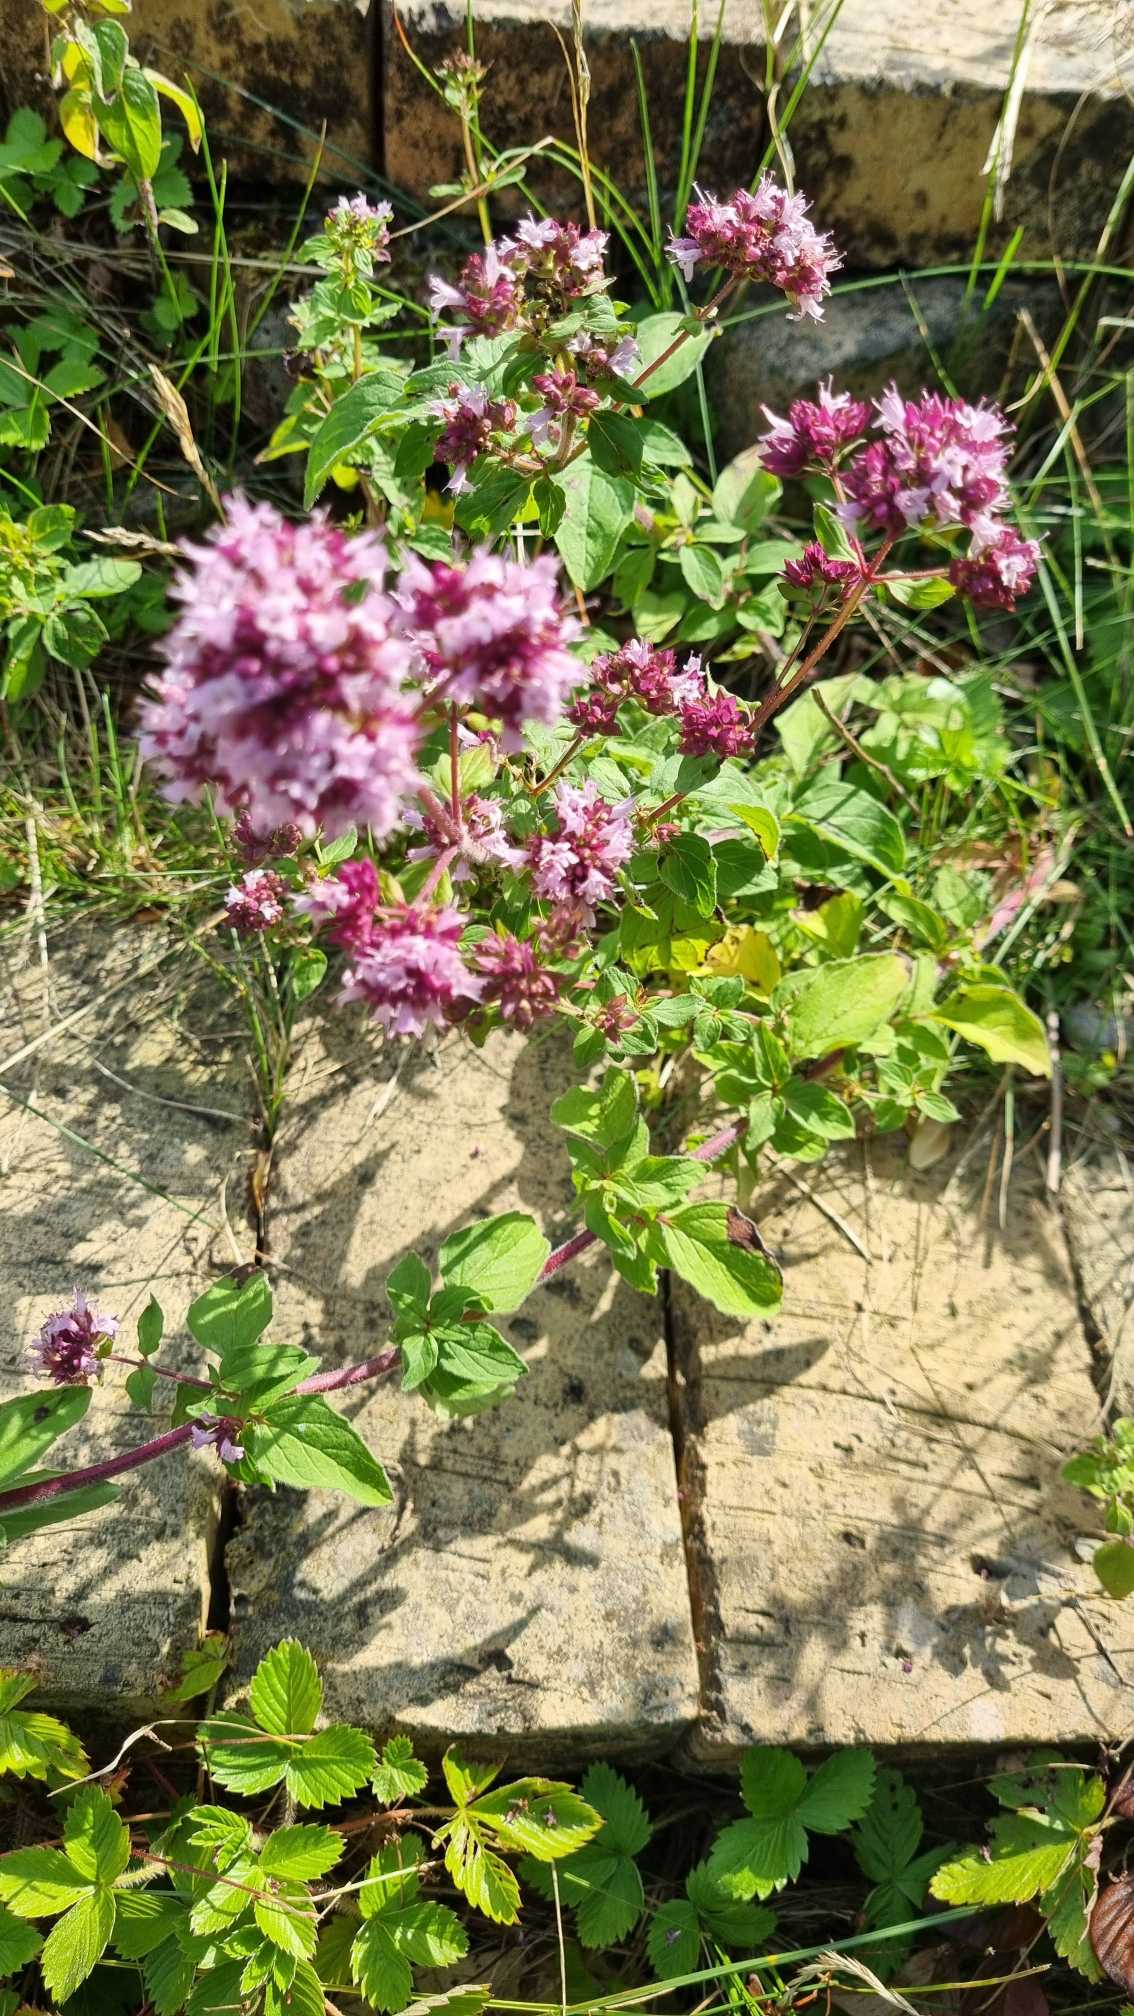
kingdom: Plantae
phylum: Tracheophyta
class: Magnoliopsida
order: Lamiales
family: Lamiaceae
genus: Origanum
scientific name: Origanum vulgare
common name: Merian
